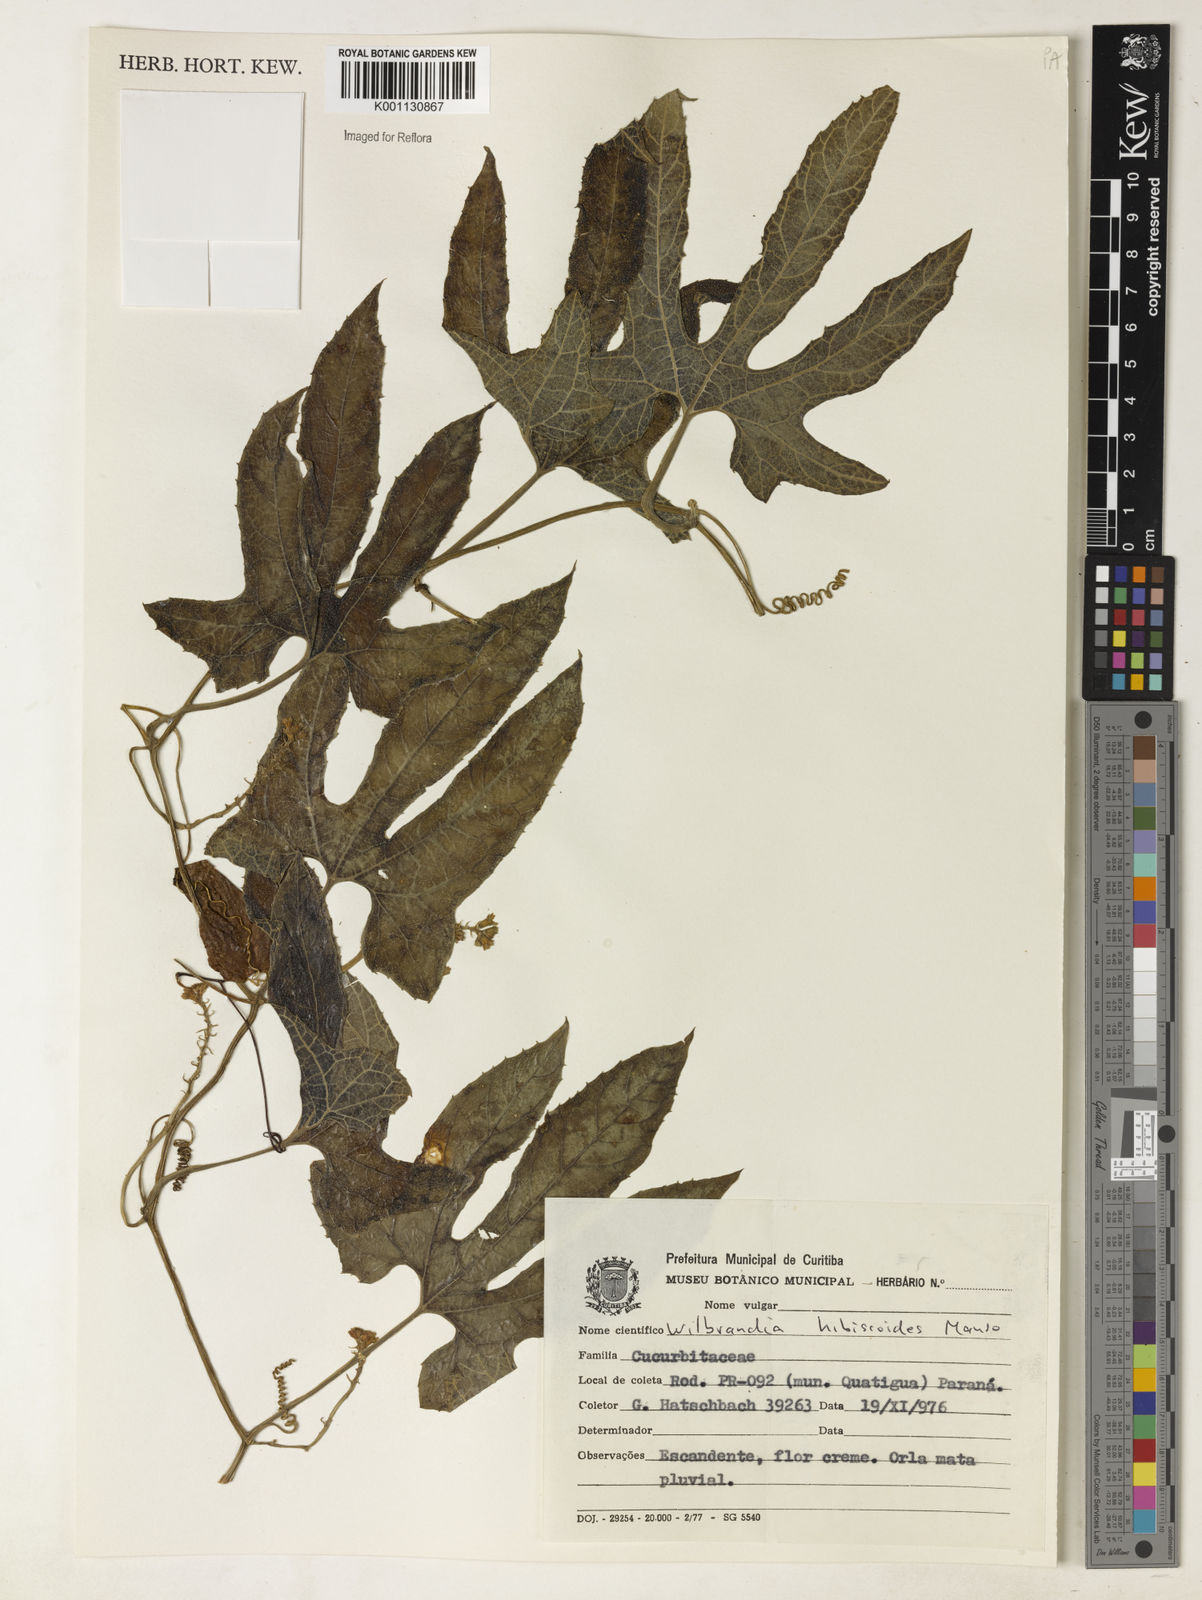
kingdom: Plantae
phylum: Tracheophyta
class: Magnoliopsida
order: Cucurbitales
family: Cucurbitaceae
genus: Wilbrandia
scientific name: Wilbrandia hibiscoides
